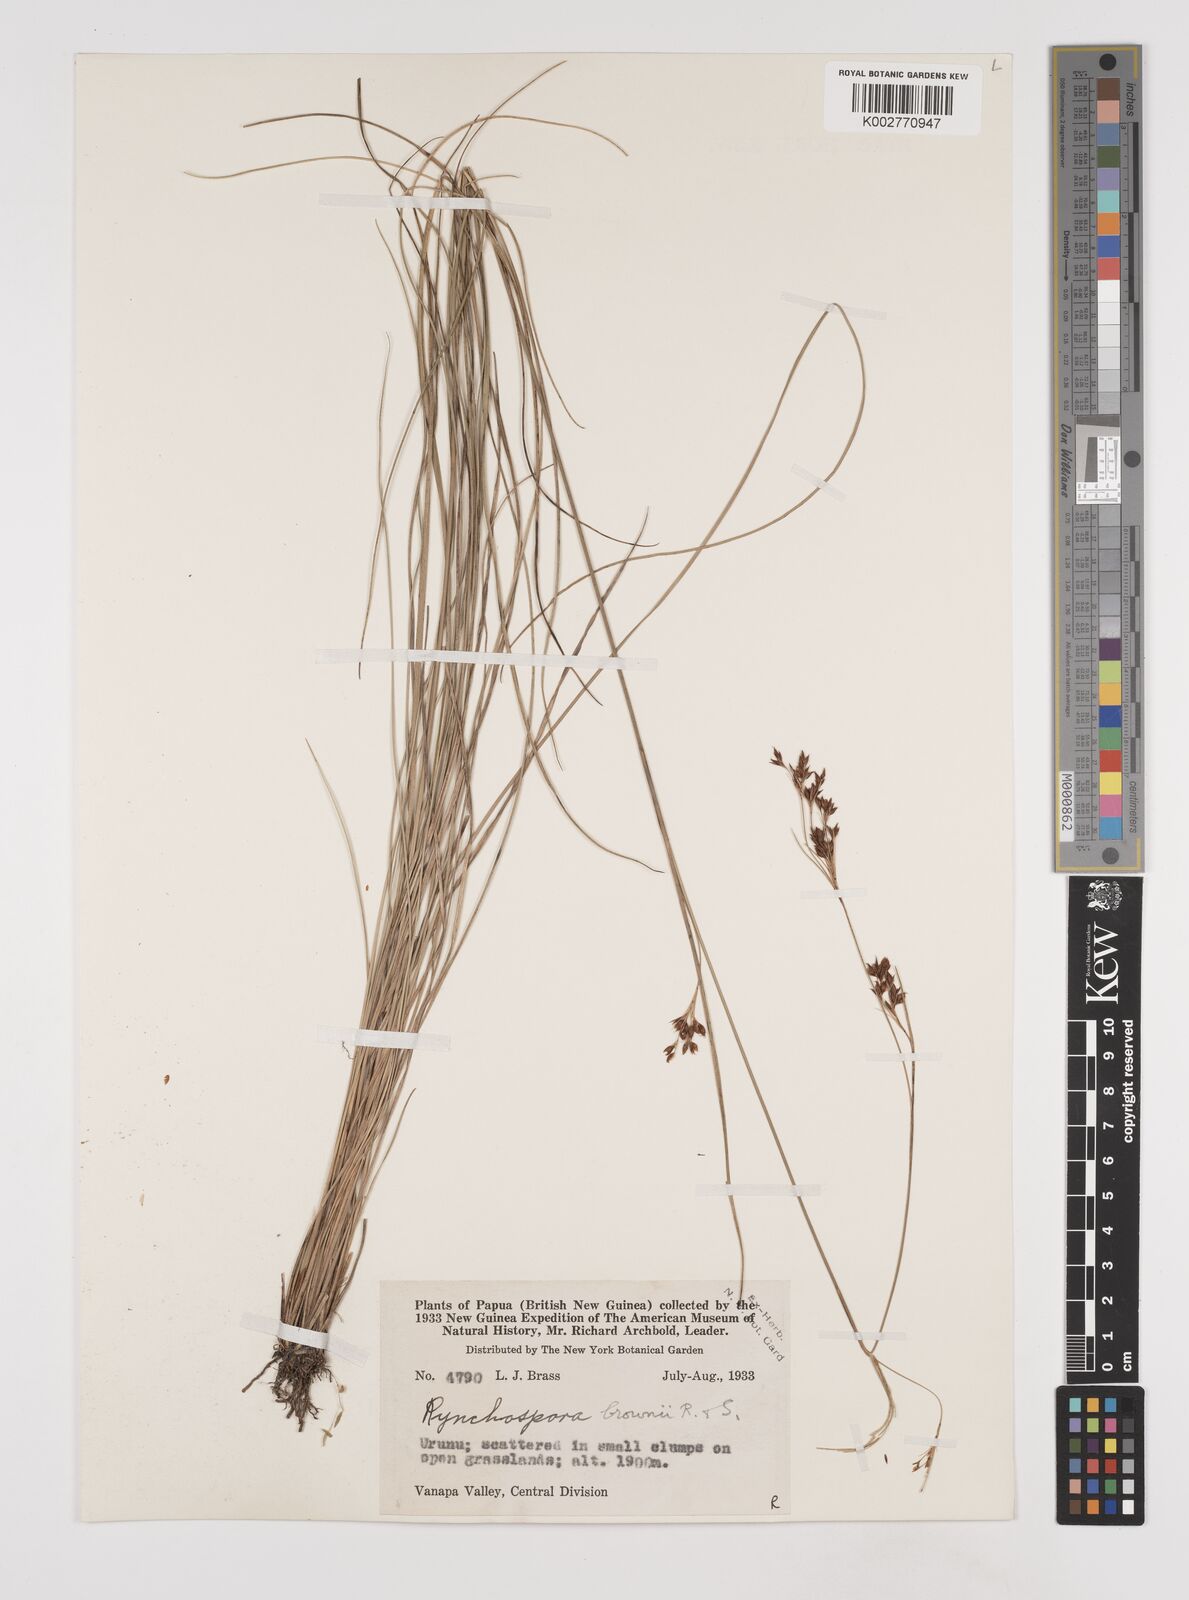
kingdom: Plantae
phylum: Tracheophyta
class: Liliopsida
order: Poales
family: Cyperaceae
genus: Rhynchospora
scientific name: Rhynchospora rugosa
